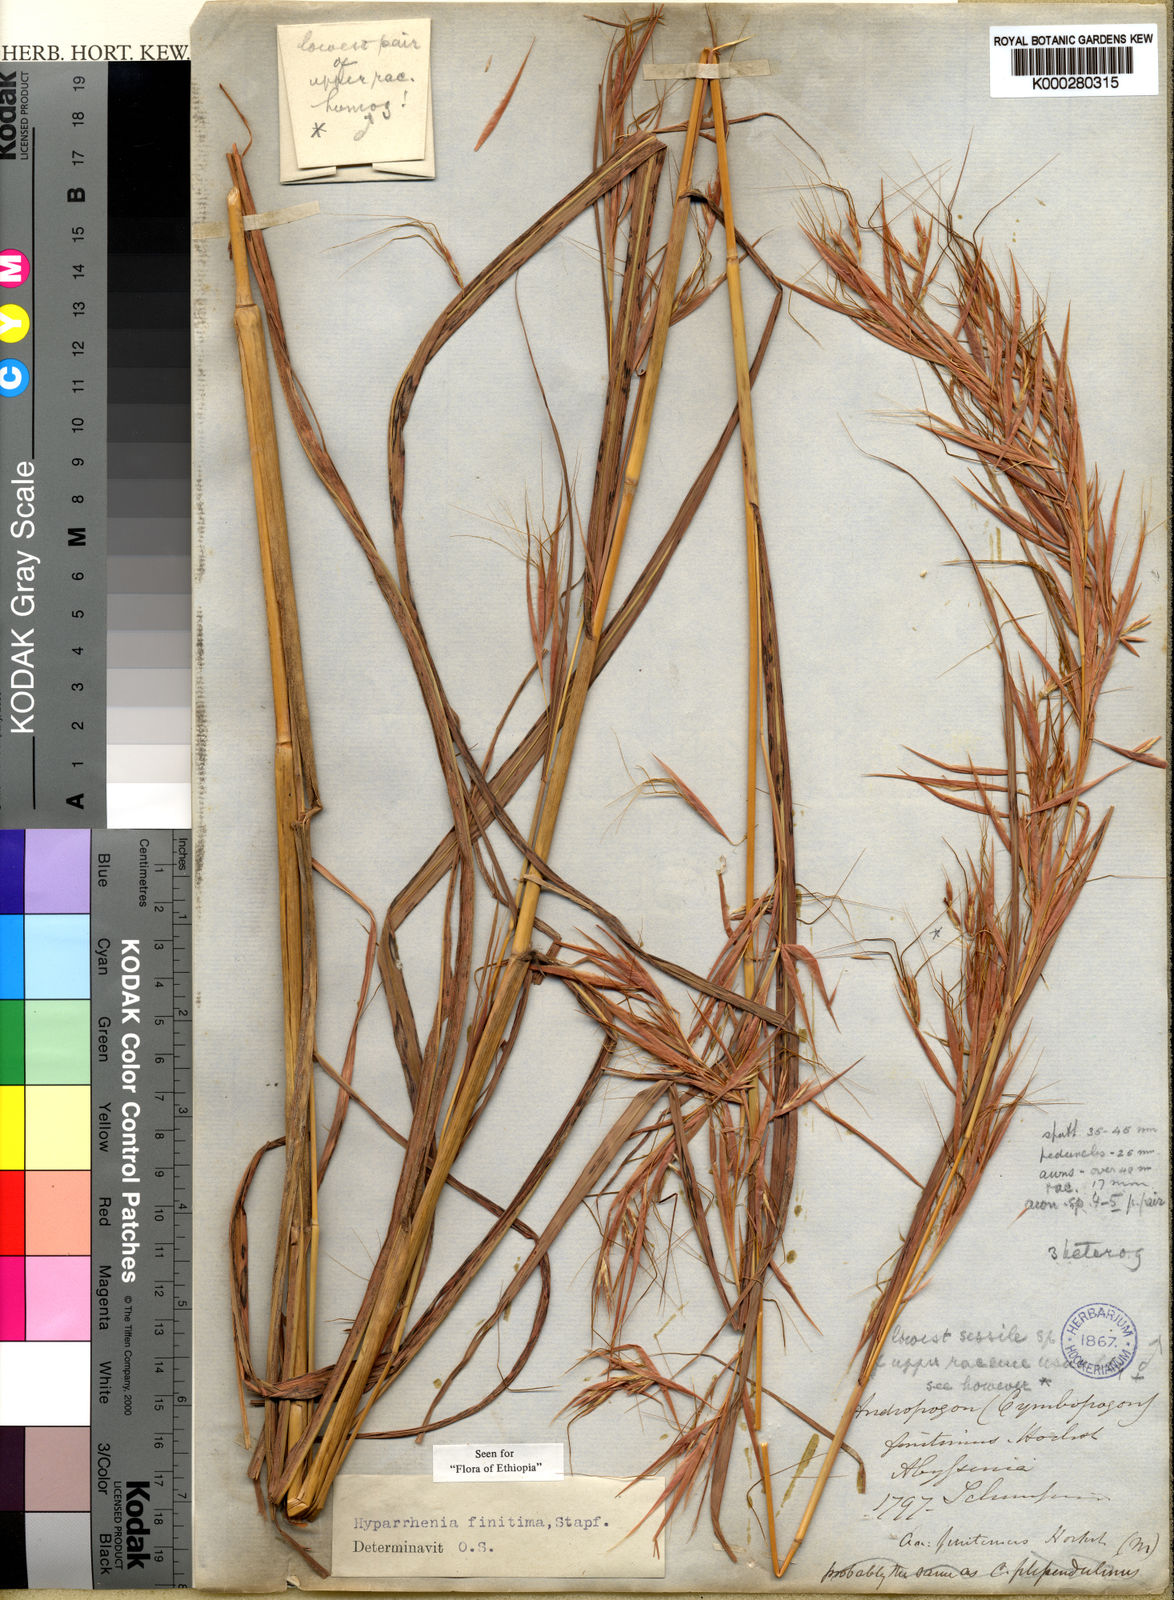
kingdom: Plantae
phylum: Tracheophyta
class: Liliopsida
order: Poales
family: Poaceae
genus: Hyparrhenia
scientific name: Hyparrhenia finitima
